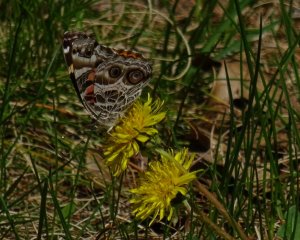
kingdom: Animalia
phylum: Arthropoda
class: Insecta
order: Lepidoptera
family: Nymphalidae
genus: Vanessa
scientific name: Vanessa virginiensis
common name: American Lady
